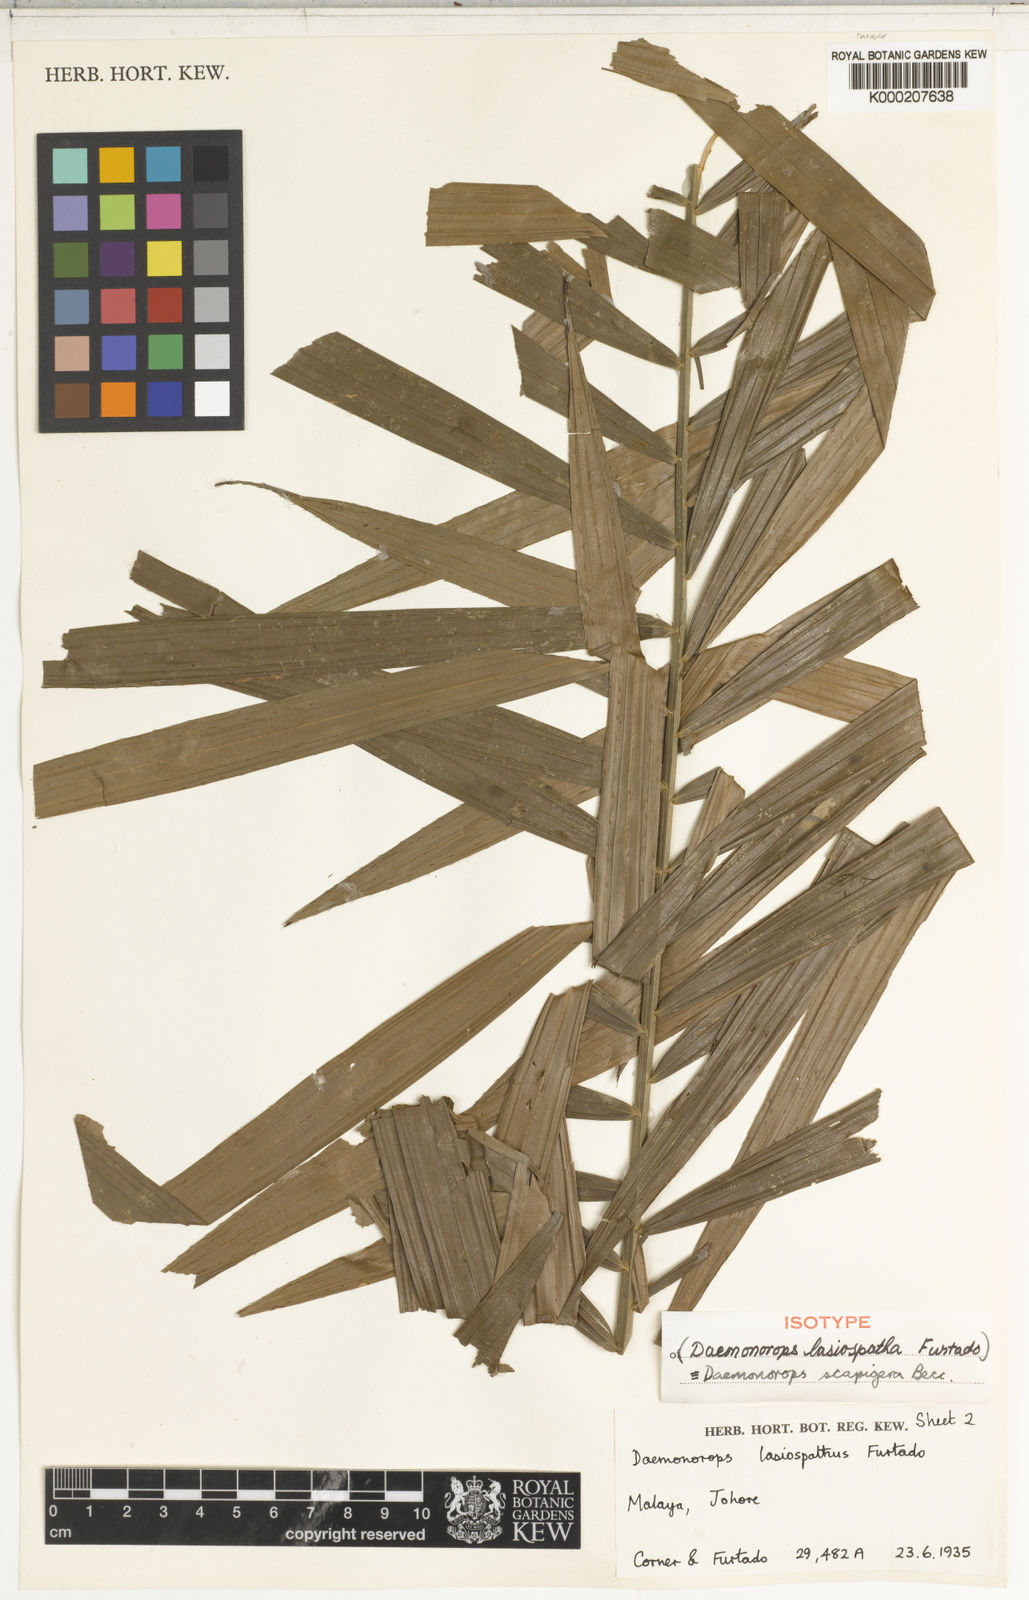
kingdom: Plantae
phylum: Tracheophyta
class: Liliopsida
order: Arecales
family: Arecaceae
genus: Calamus
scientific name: Calamus scapigerus
